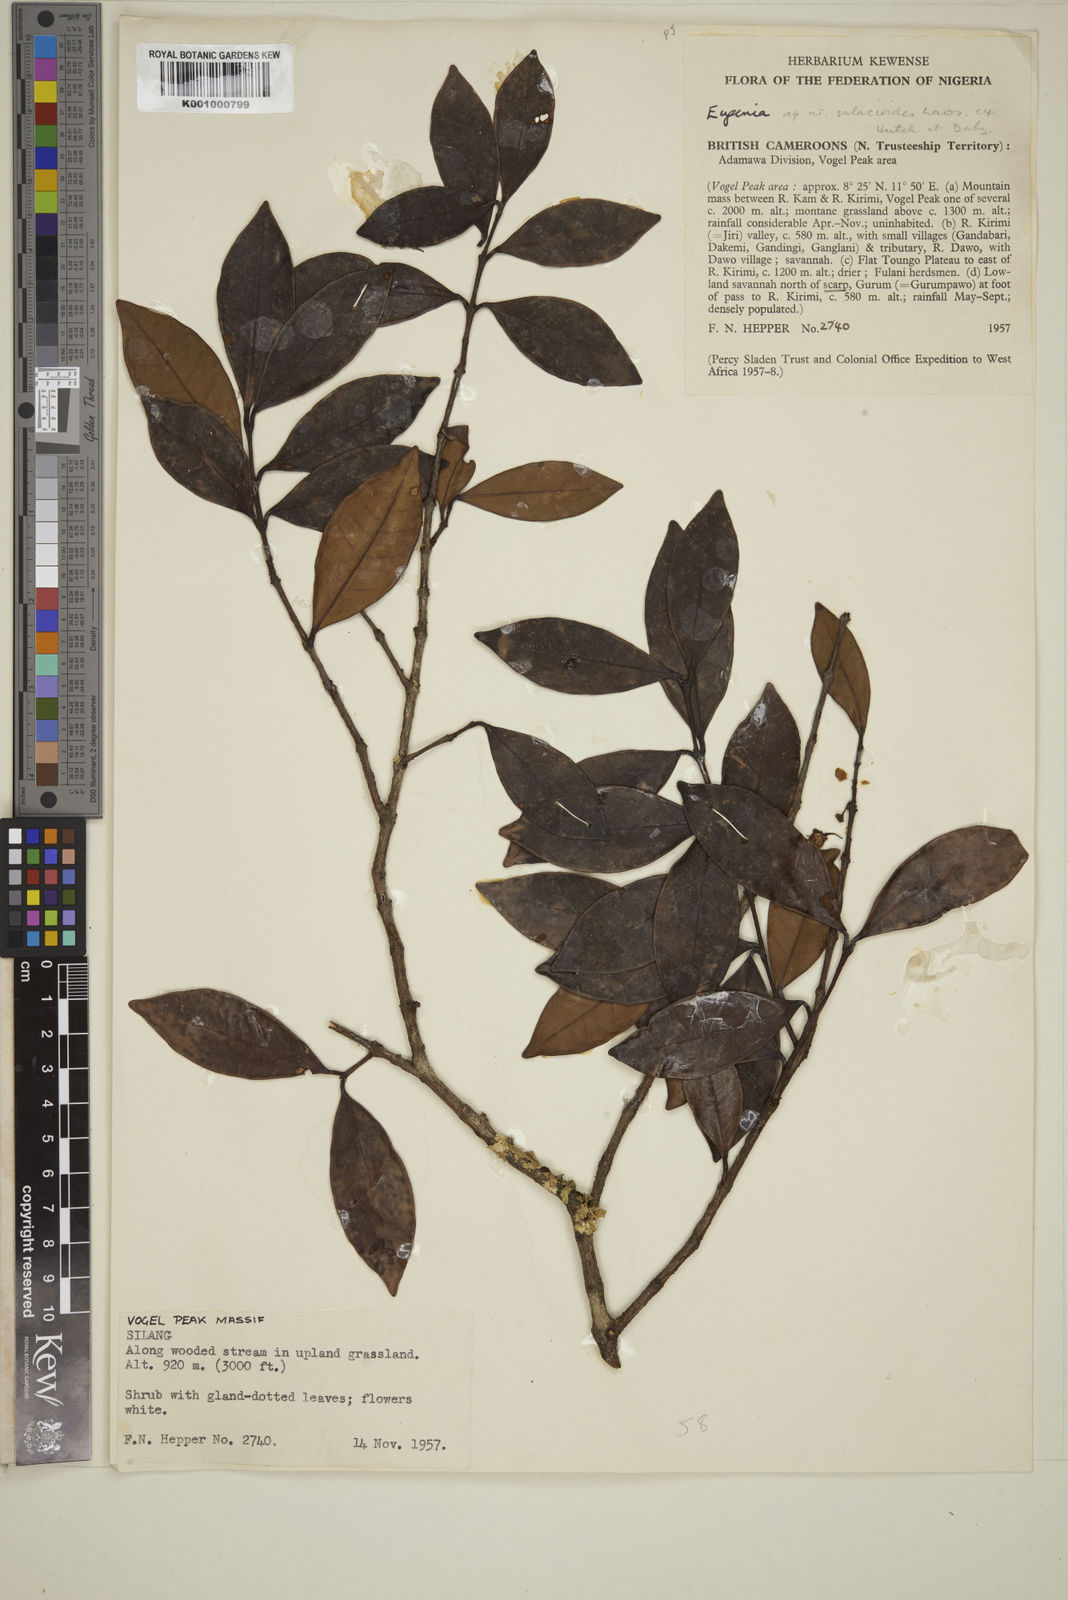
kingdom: Plantae
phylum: Tracheophyta
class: Magnoliopsida
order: Myrtales
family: Myrtaceae
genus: Eugenia
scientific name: Eugenia
